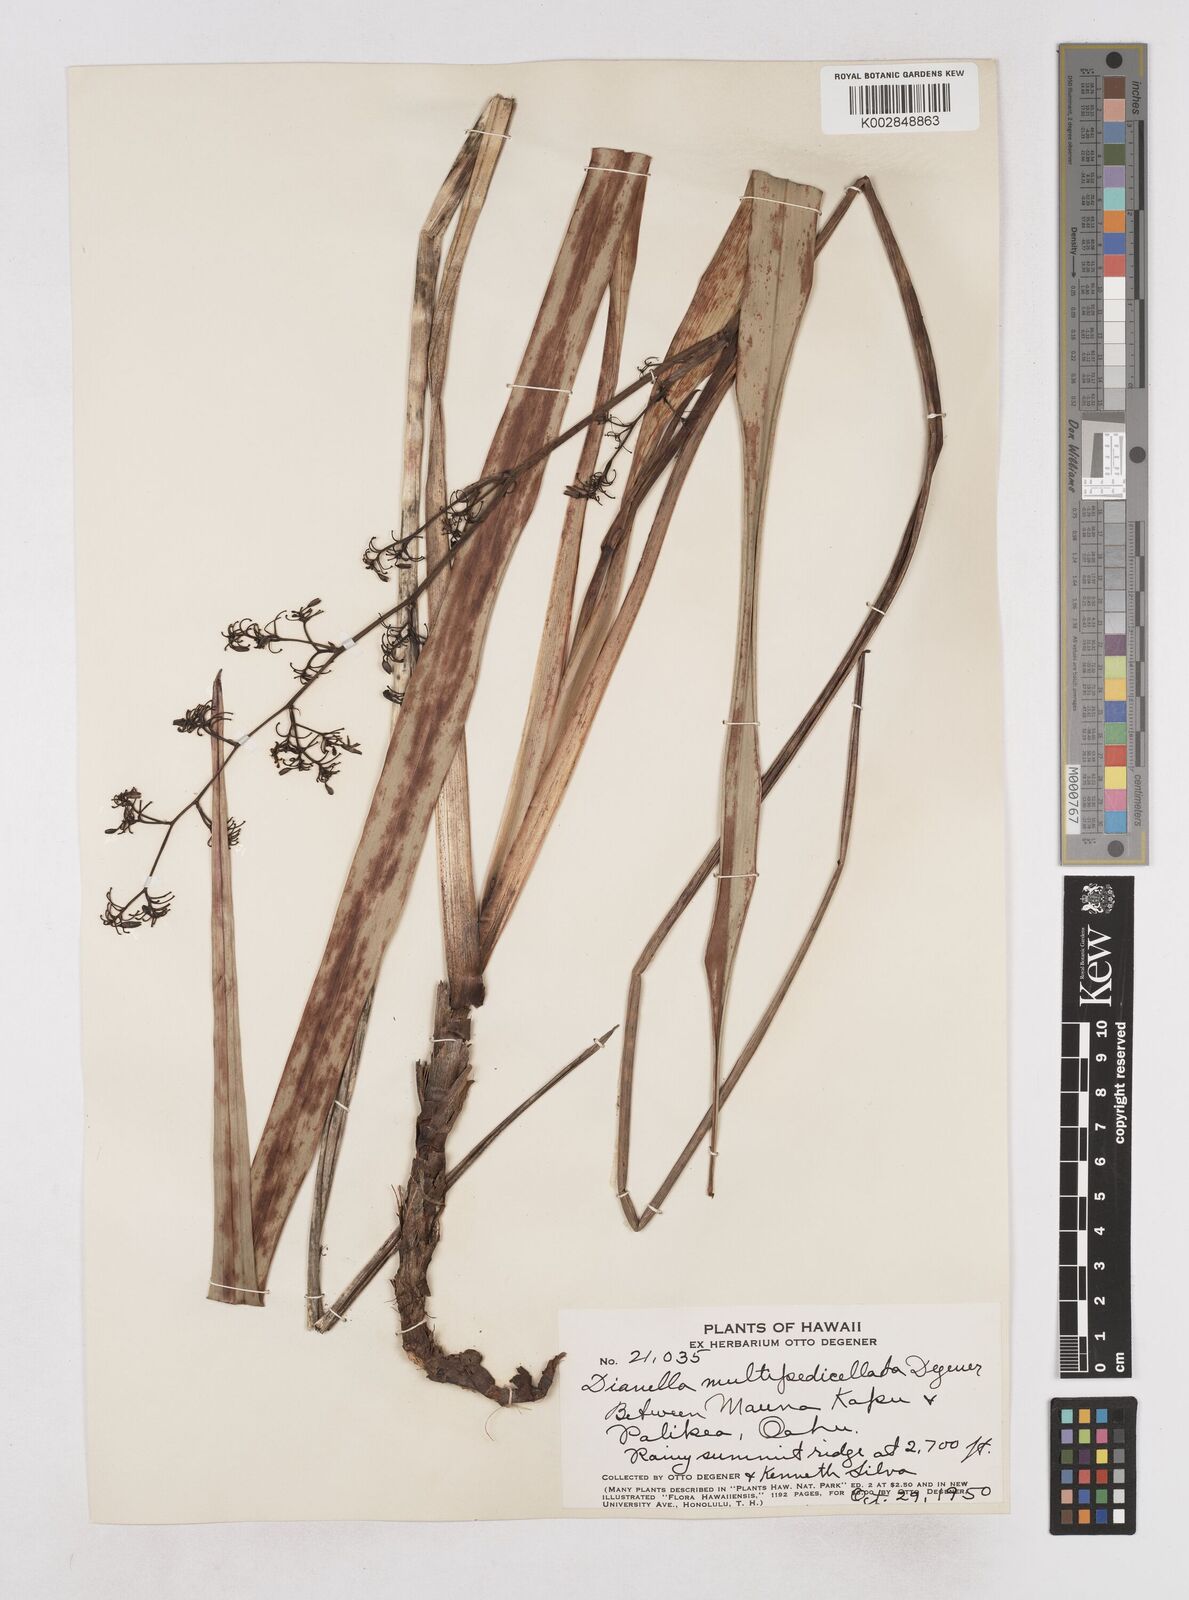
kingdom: Plantae
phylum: Tracheophyta
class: Liliopsida
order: Asparagales
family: Asphodelaceae
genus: Dianella
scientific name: Dianella sandwicensis
